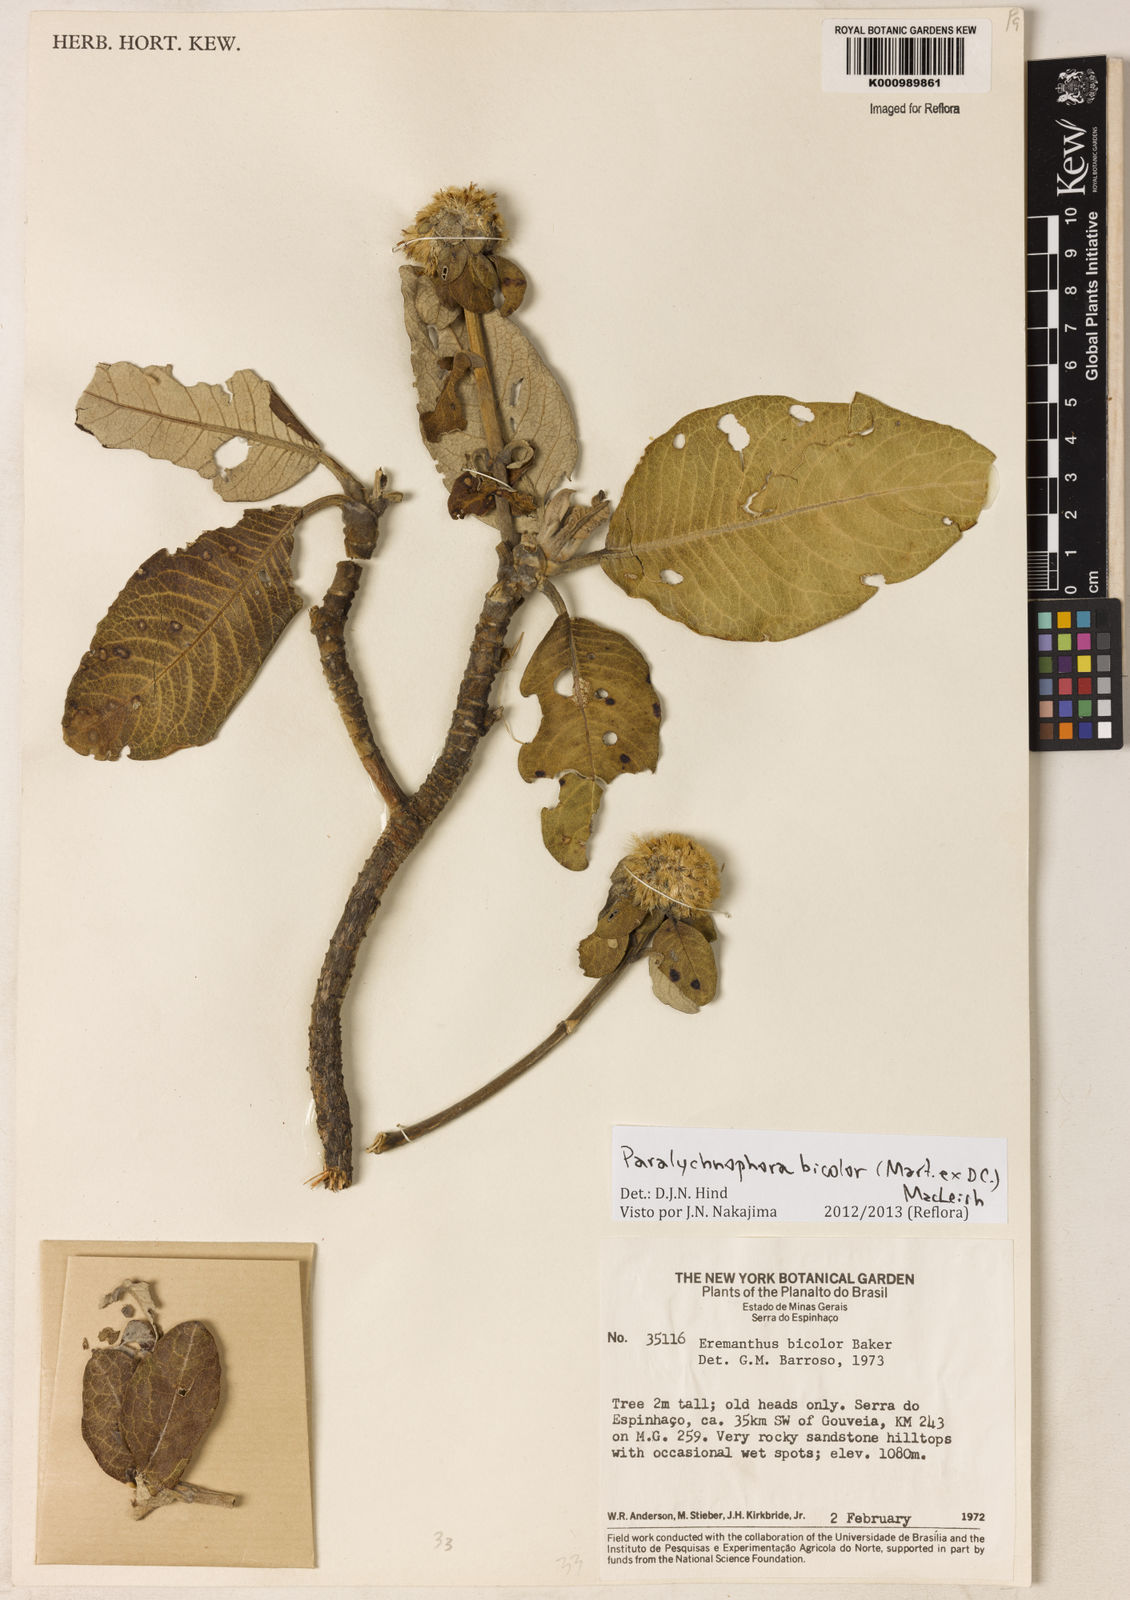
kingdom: Plantae
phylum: Tracheophyta
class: Magnoliopsida
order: Asterales
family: Asteraceae
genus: Paralychnophora
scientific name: Paralychnophora bicolor
